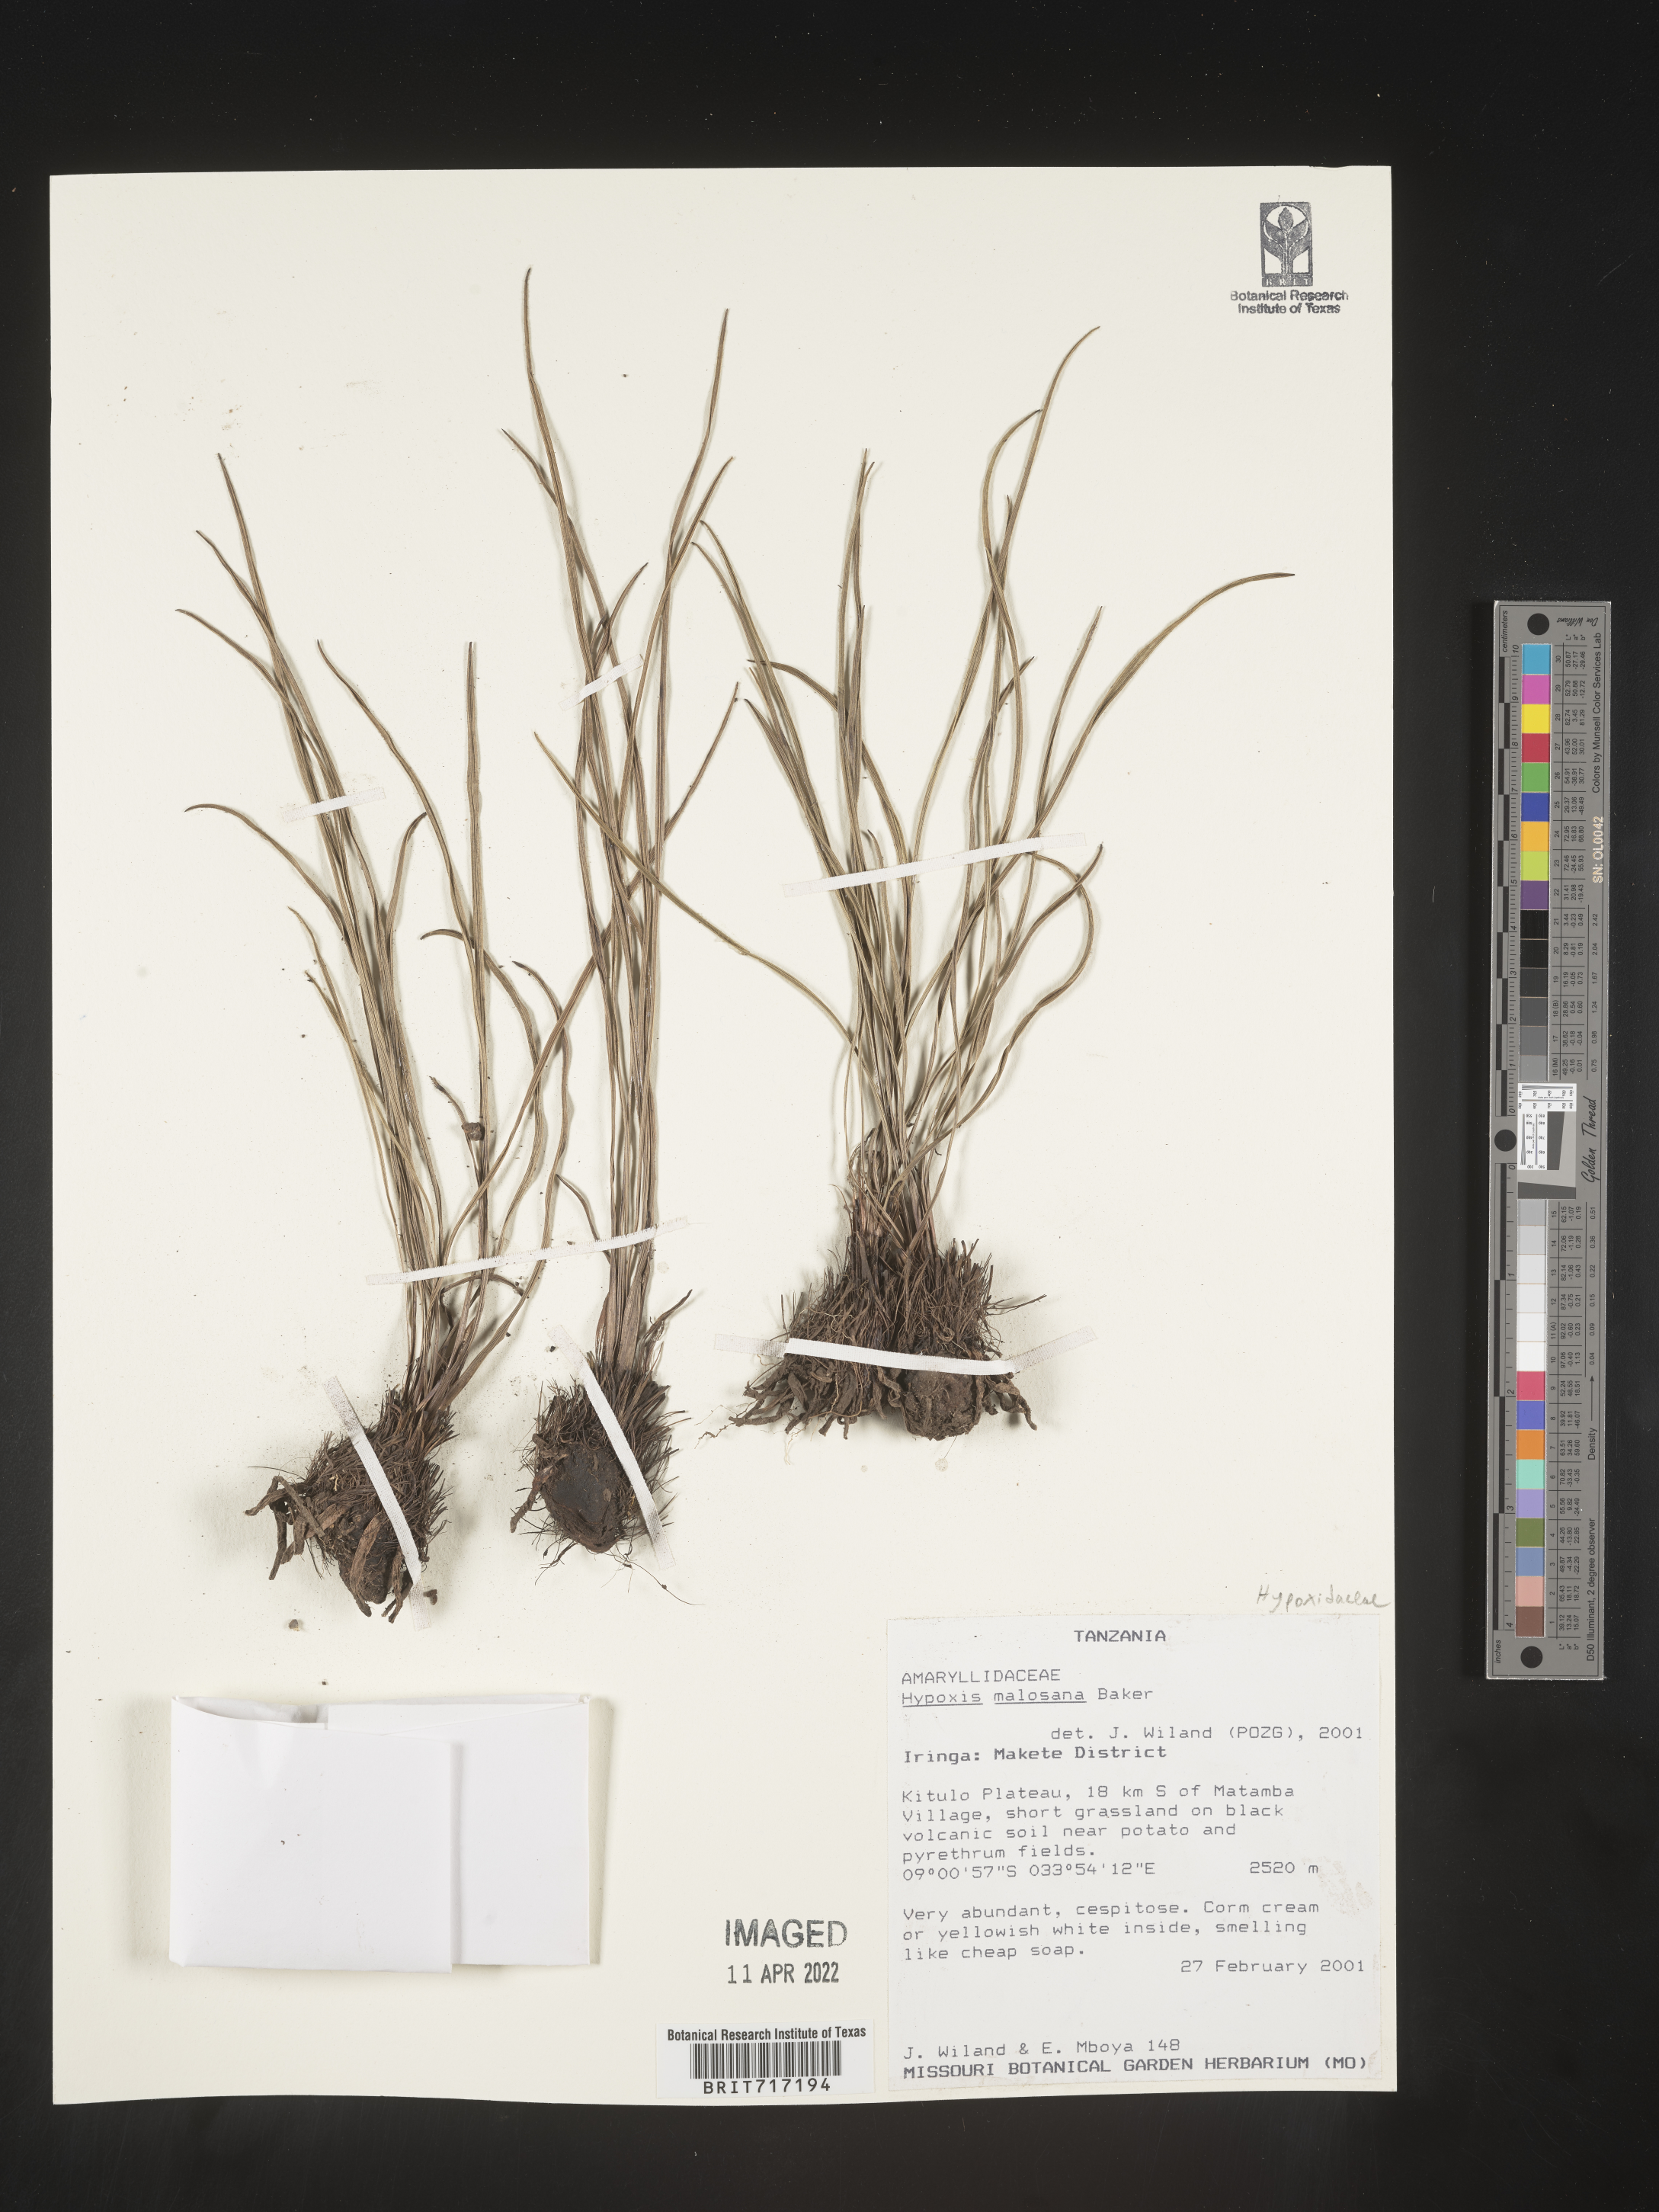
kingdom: Plantae
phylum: Tracheophyta
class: Liliopsida
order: Asparagales
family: Hypoxidaceae
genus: Hypoxis
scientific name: Hypoxis
